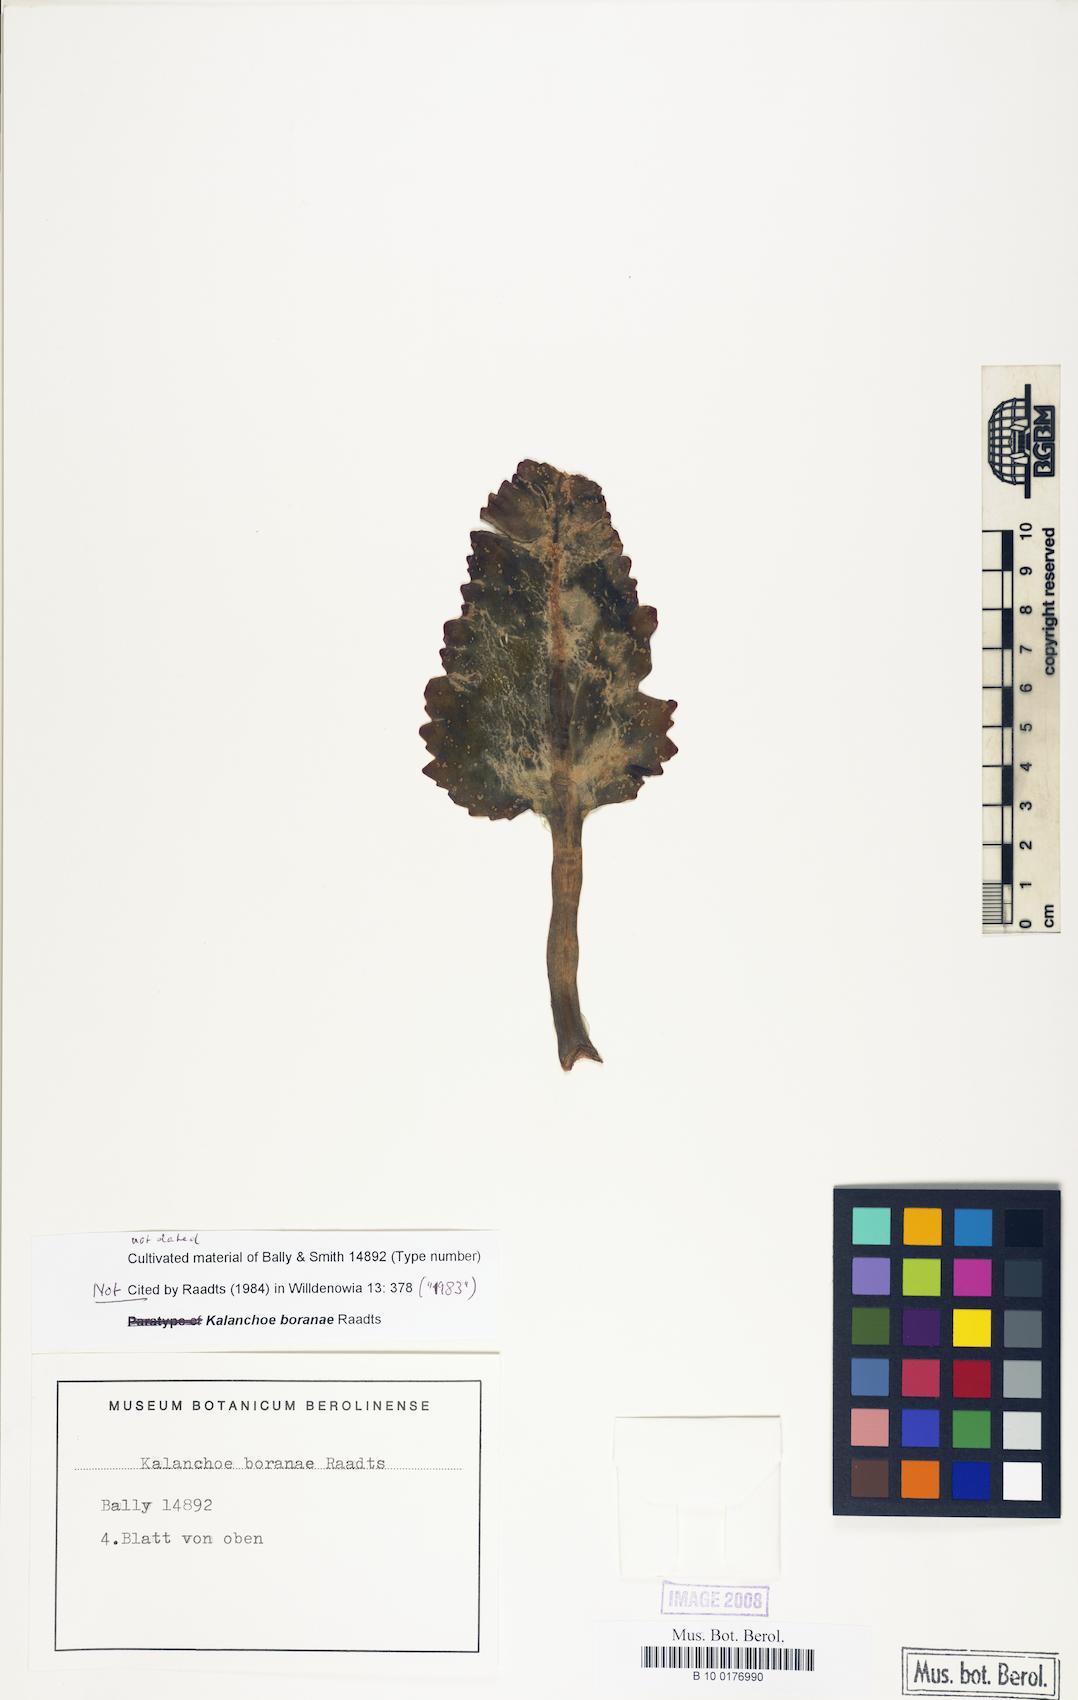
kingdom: Plantae
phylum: Tracheophyta
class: Magnoliopsida
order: Saxifragales
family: Crassulaceae
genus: Kalanchoe
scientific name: Kalanchoe boranae
